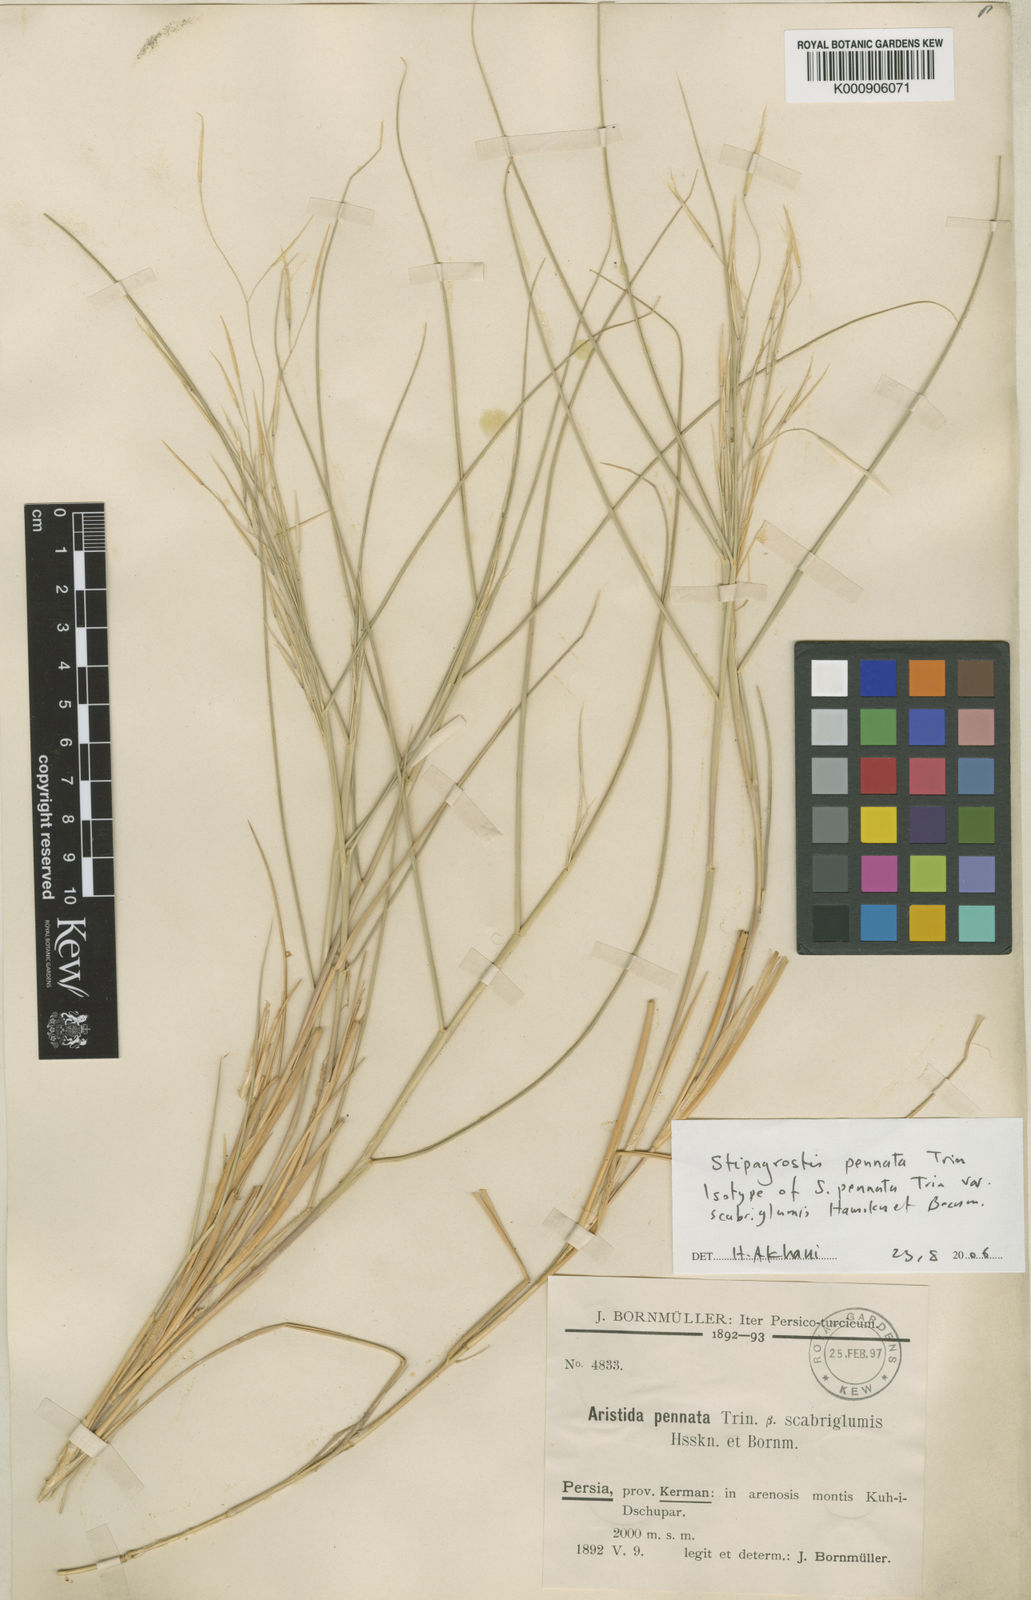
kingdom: Plantae
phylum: Tracheophyta
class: Liliopsida
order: Poales
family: Poaceae
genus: Stipagrostis
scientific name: Stipagrostis pennata
